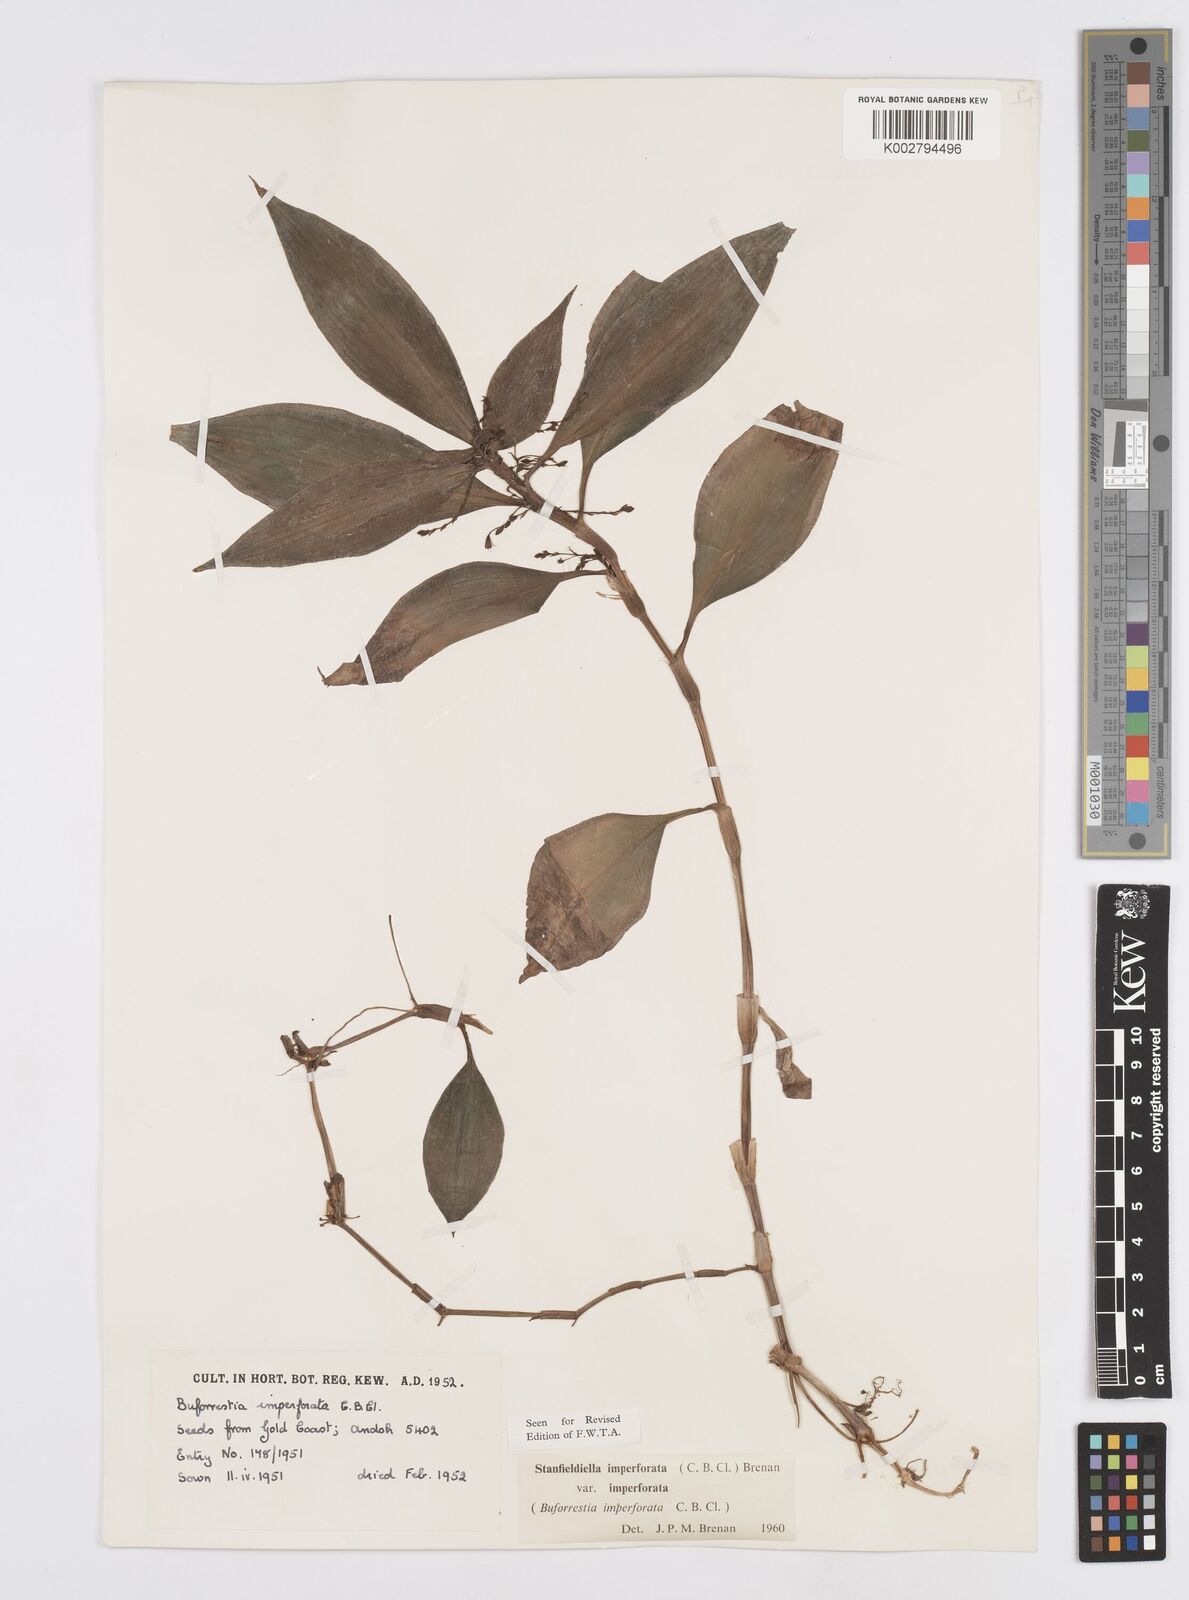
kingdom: Plantae
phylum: Tracheophyta
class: Liliopsida
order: Commelinales
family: Commelinaceae
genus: Stanfieldiella
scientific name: Stanfieldiella imperforata
